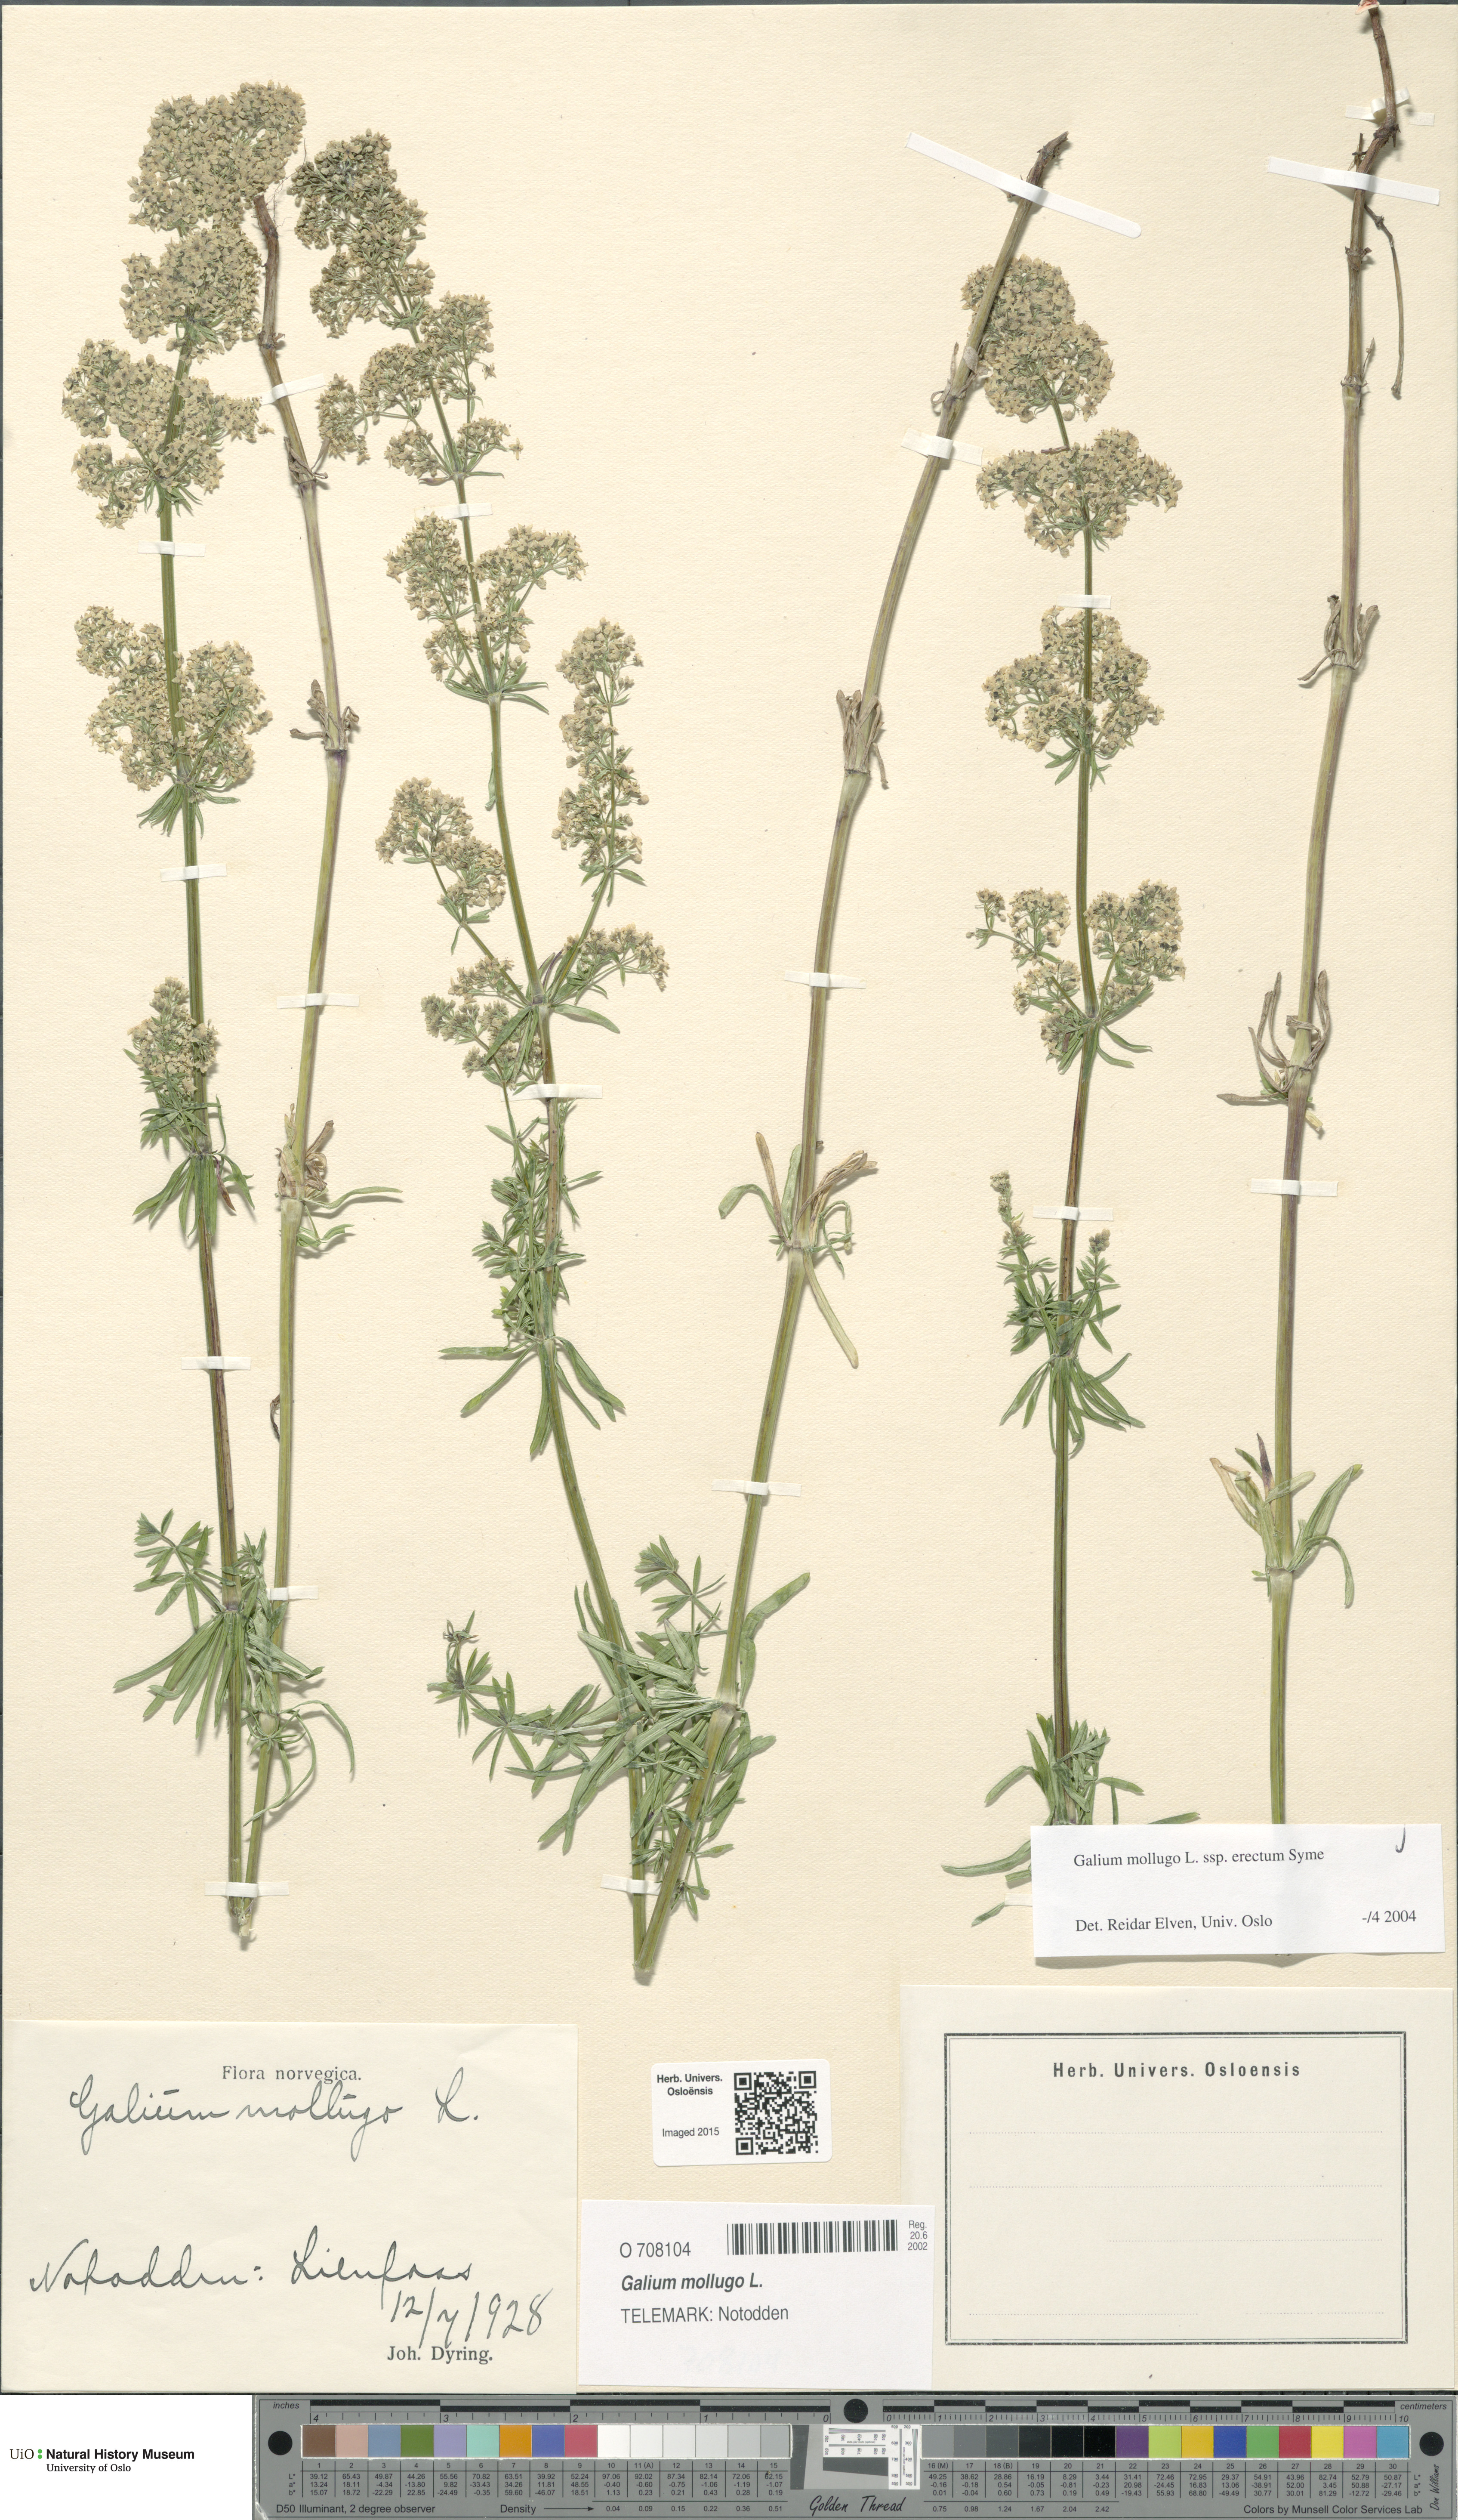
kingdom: Plantae
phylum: Tracheophyta
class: Magnoliopsida
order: Gentianales
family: Rubiaceae
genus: Galium
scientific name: Galium album
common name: White bedstraw
